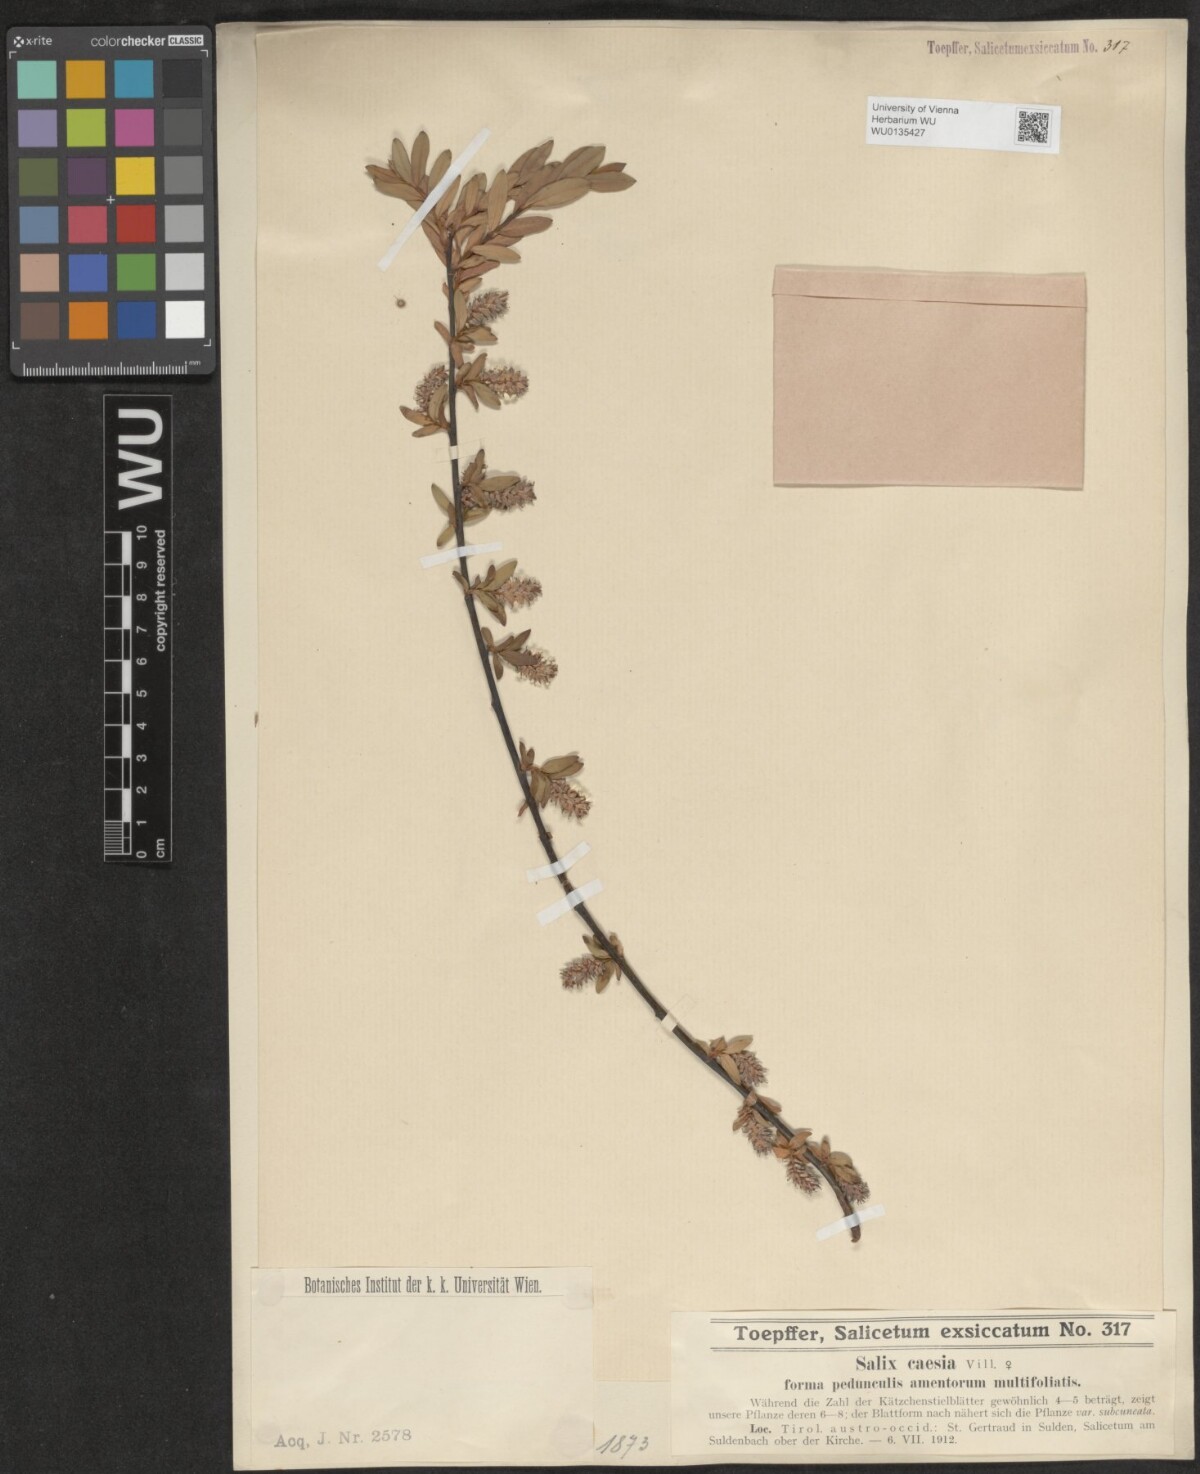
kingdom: Plantae
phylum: Tracheophyta
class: Magnoliopsida
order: Malpighiales
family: Salicaceae
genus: Salix
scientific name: Salix caesia
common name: Blue willow
